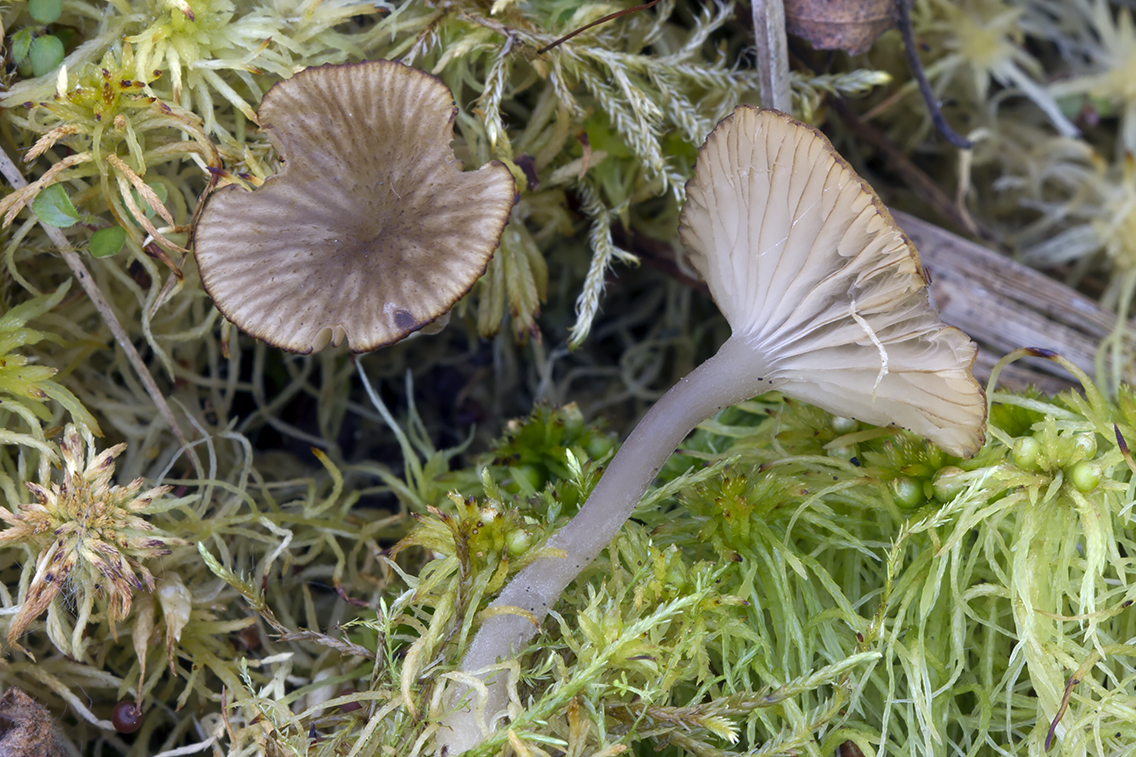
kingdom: Fungi
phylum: Basidiomycota
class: Agaricomycetes
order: Agaricales
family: Hygrophoraceae
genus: Arrhenia
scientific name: Arrhenia gerardiana
